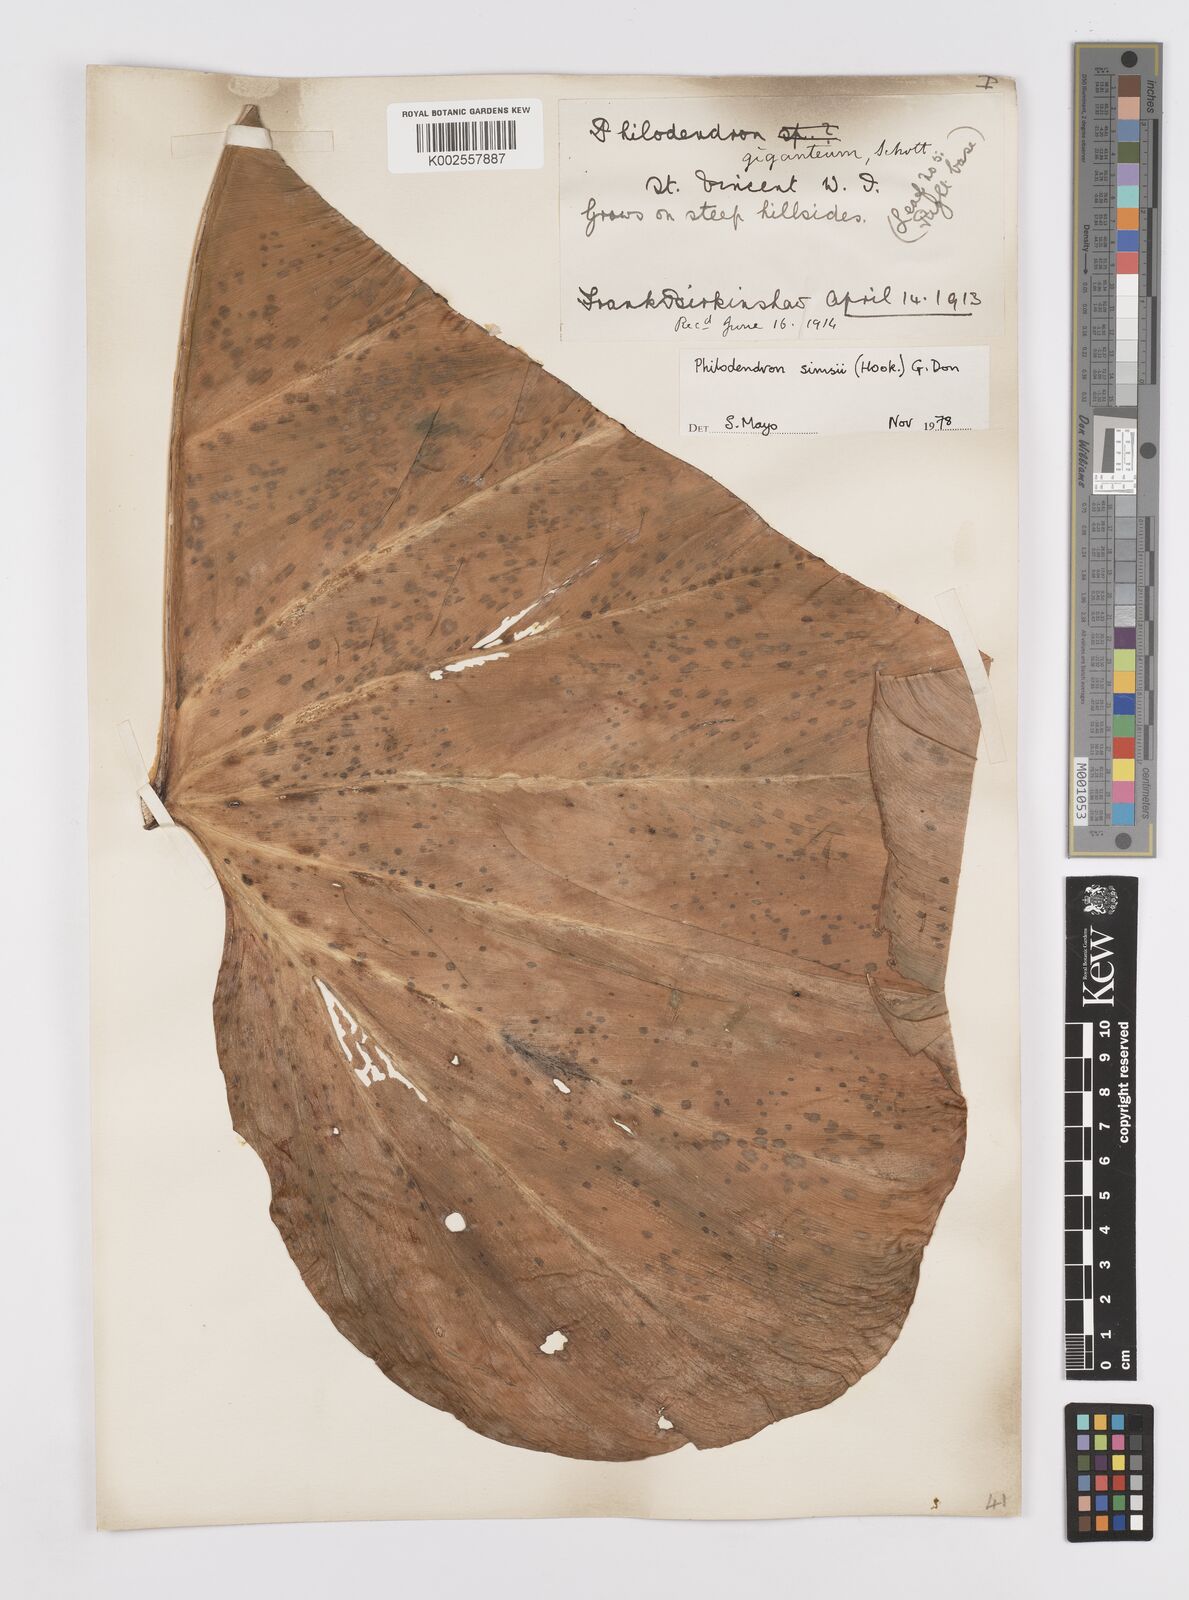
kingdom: Plantae
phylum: Tracheophyta
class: Liliopsida
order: Alismatales
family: Araceae
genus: Philodendron
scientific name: Philodendron
